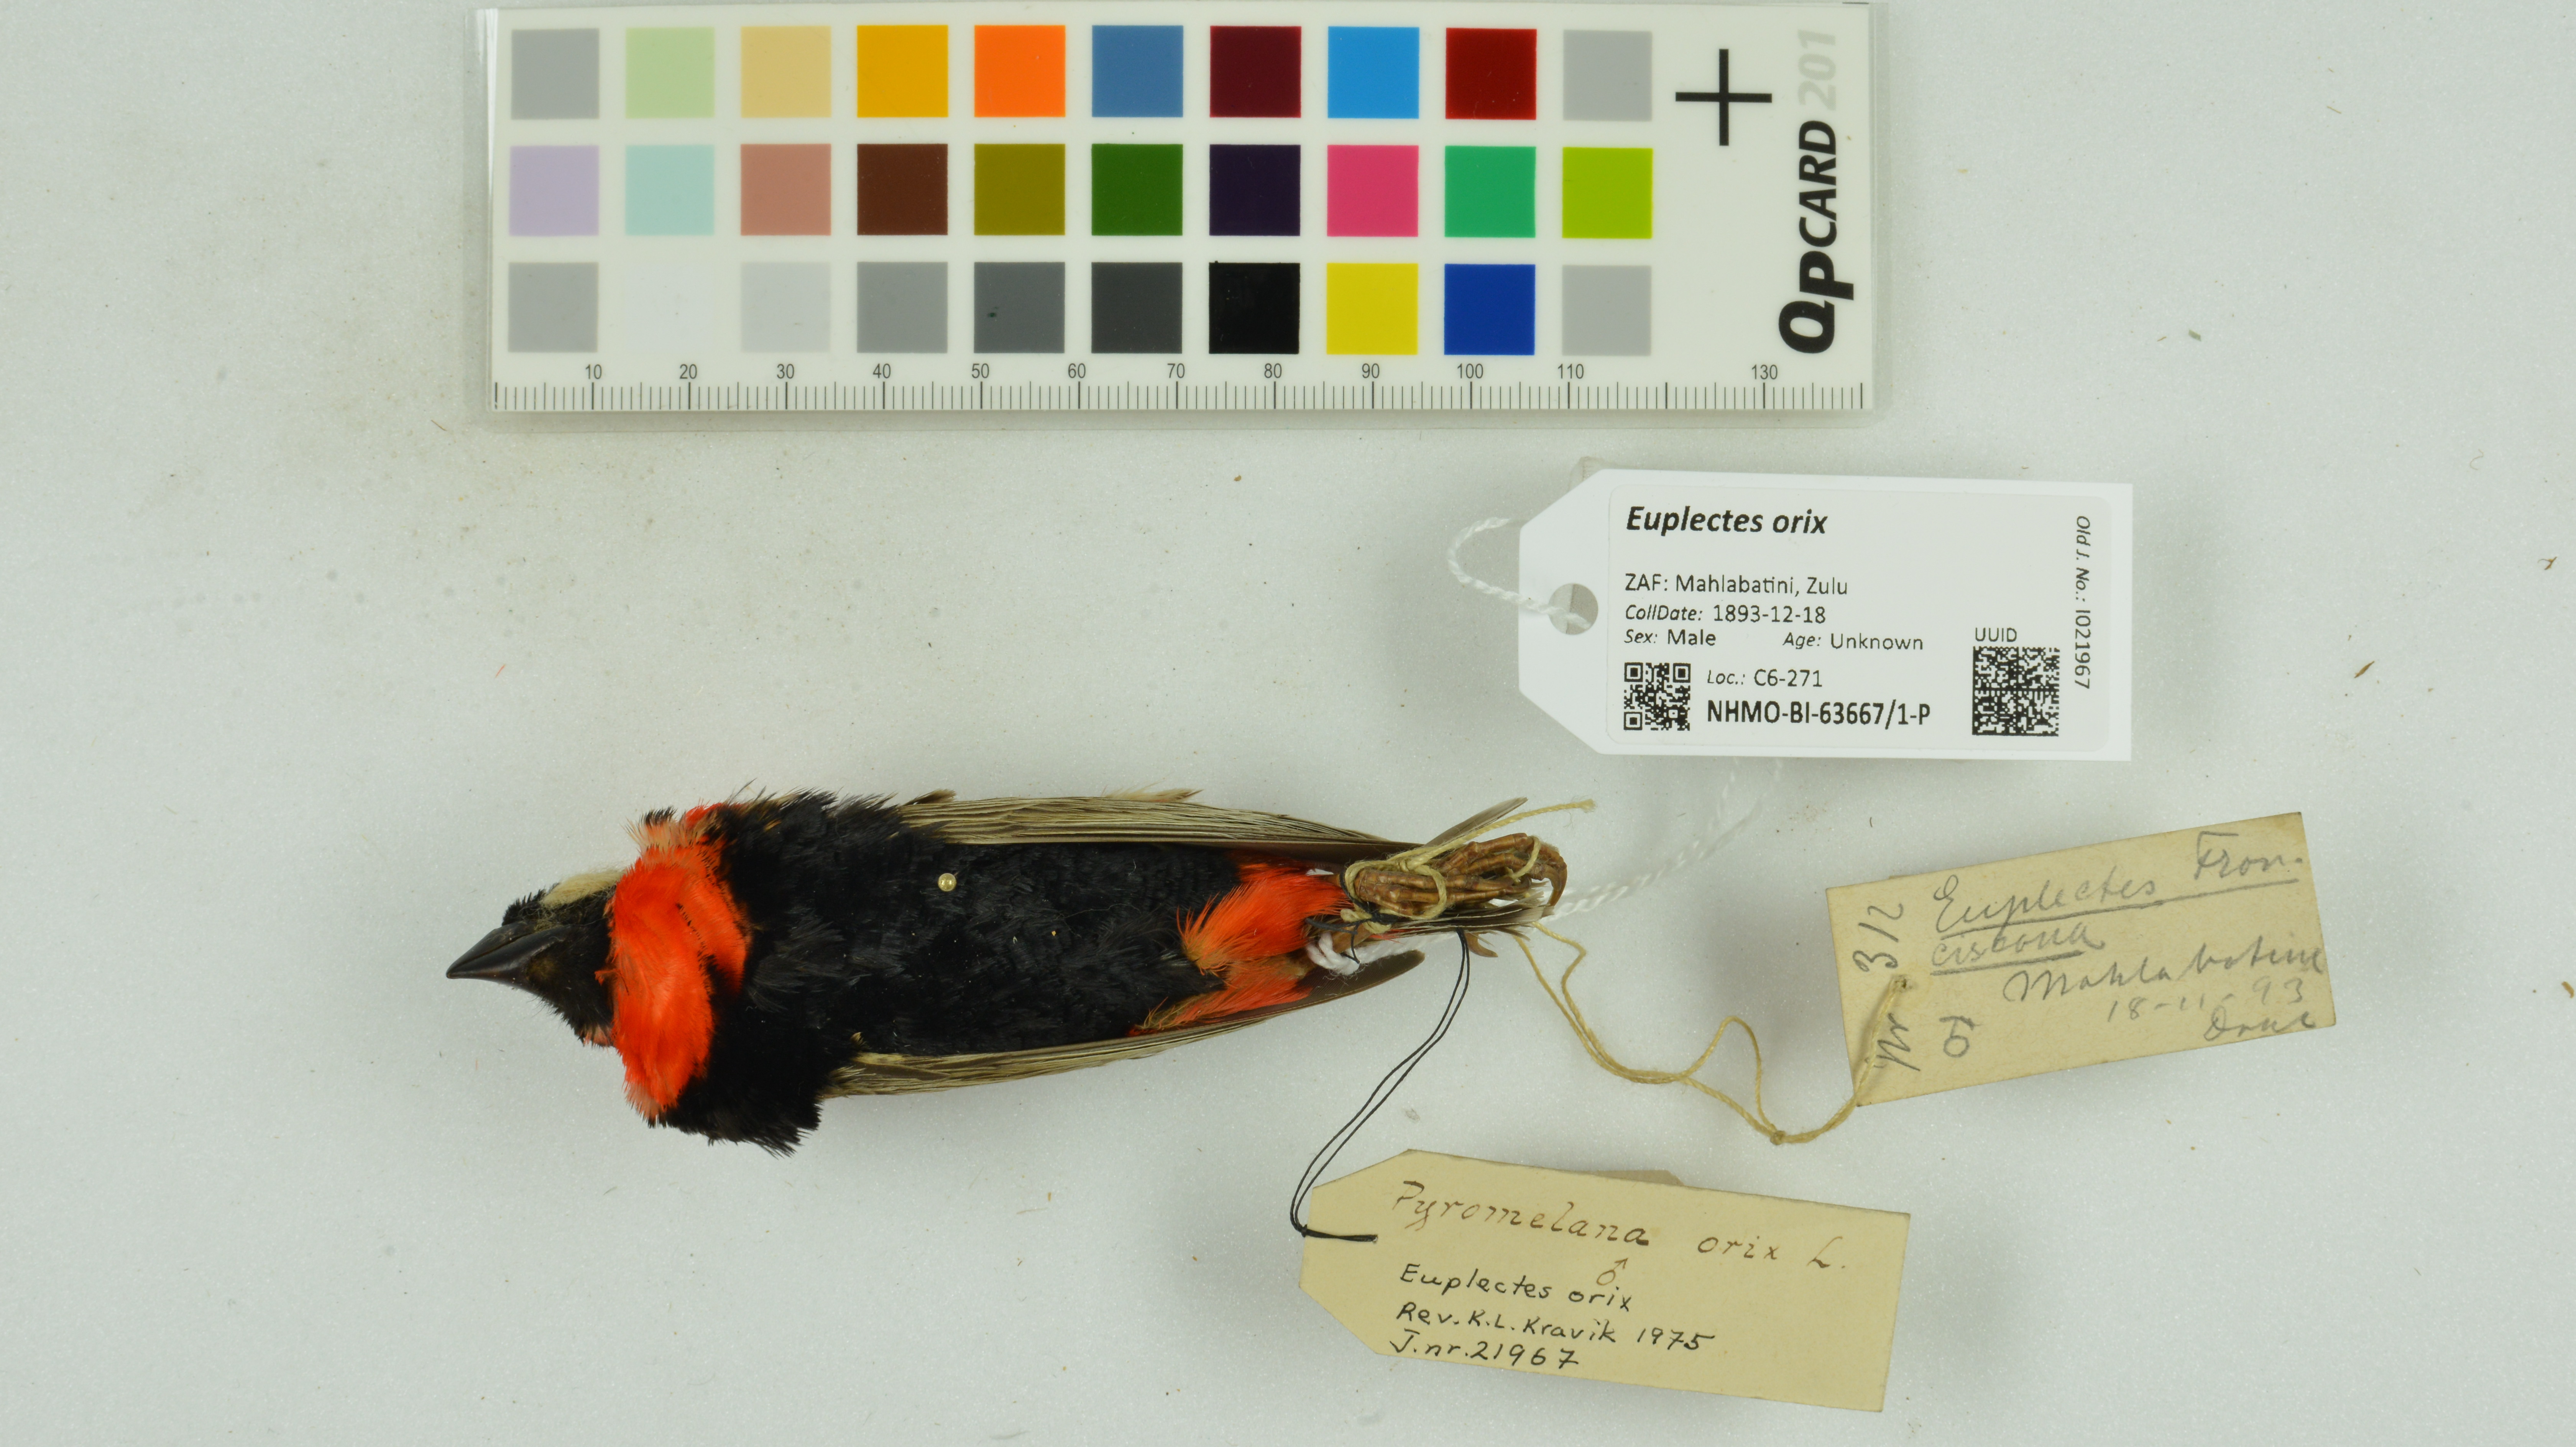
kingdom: Animalia
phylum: Chordata
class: Aves
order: Passeriformes
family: Ploceidae
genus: Euplectes
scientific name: Euplectes orix
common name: Southern red bishop
